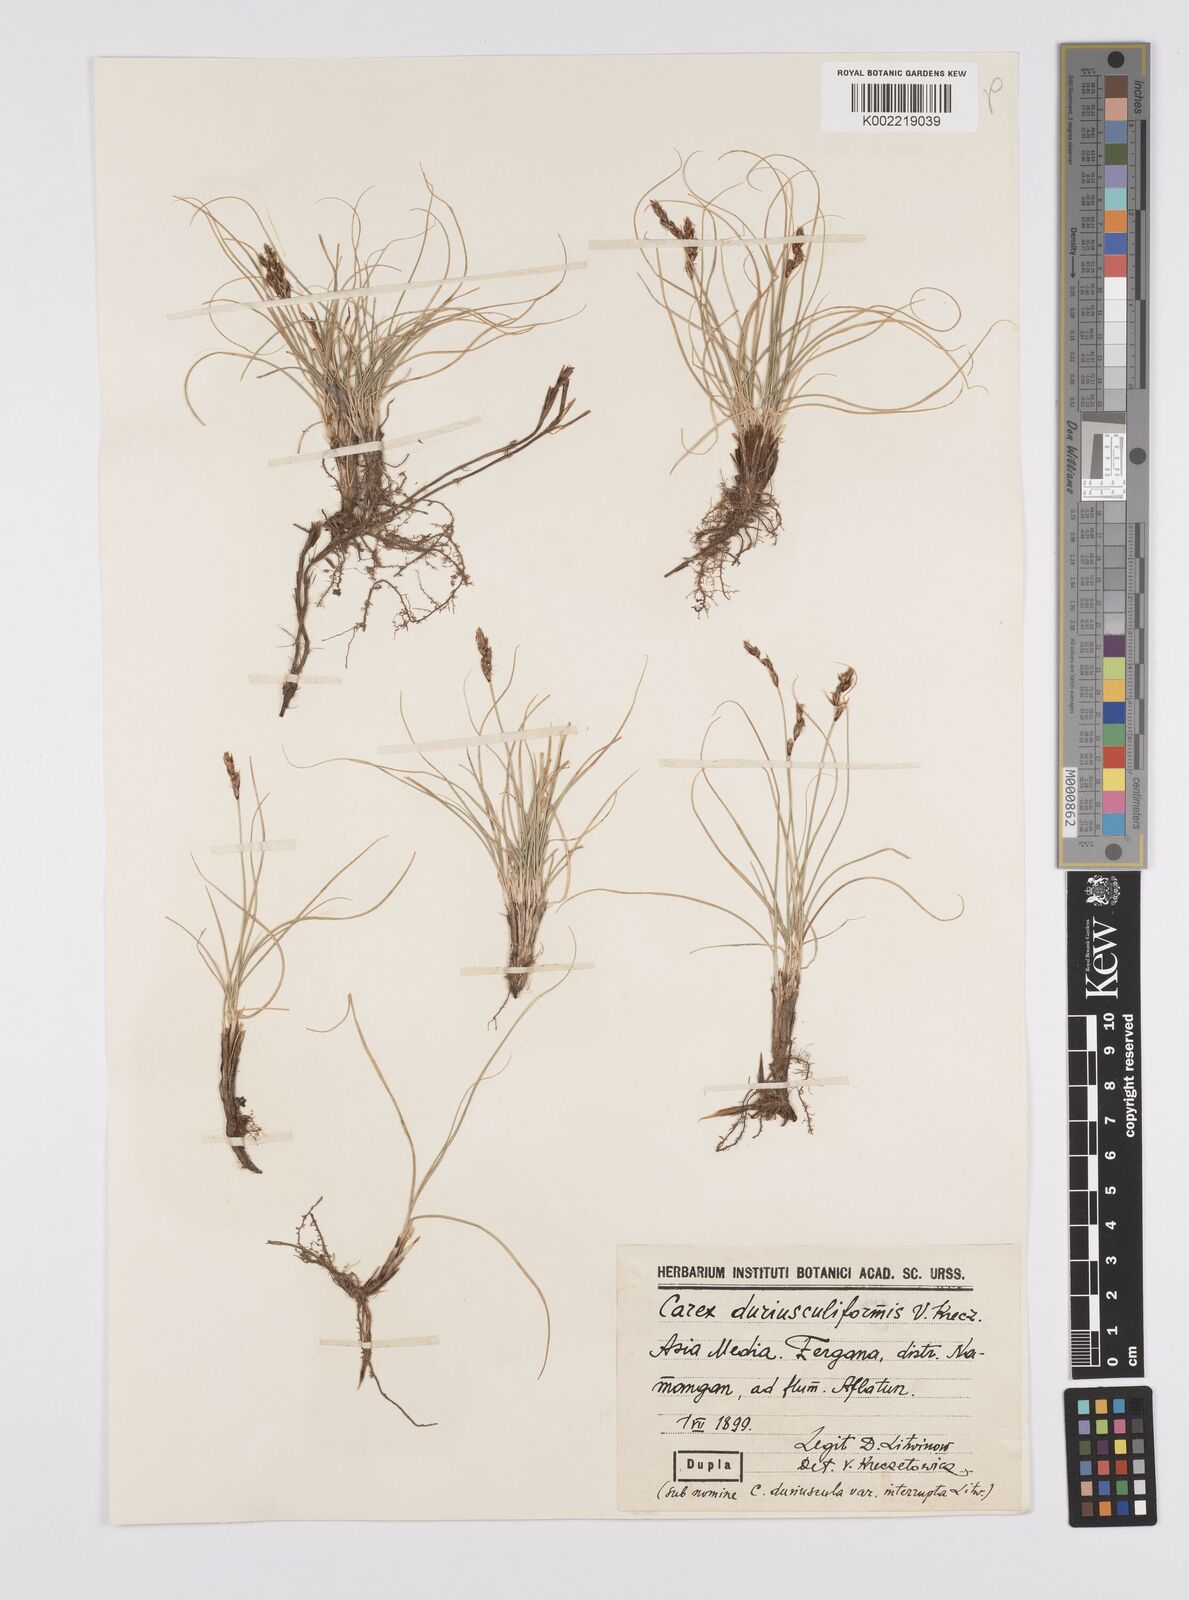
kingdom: Plantae
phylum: Tracheophyta
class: Liliopsida
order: Poales
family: Cyperaceae
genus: Carex
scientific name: Carex yamatsutana
